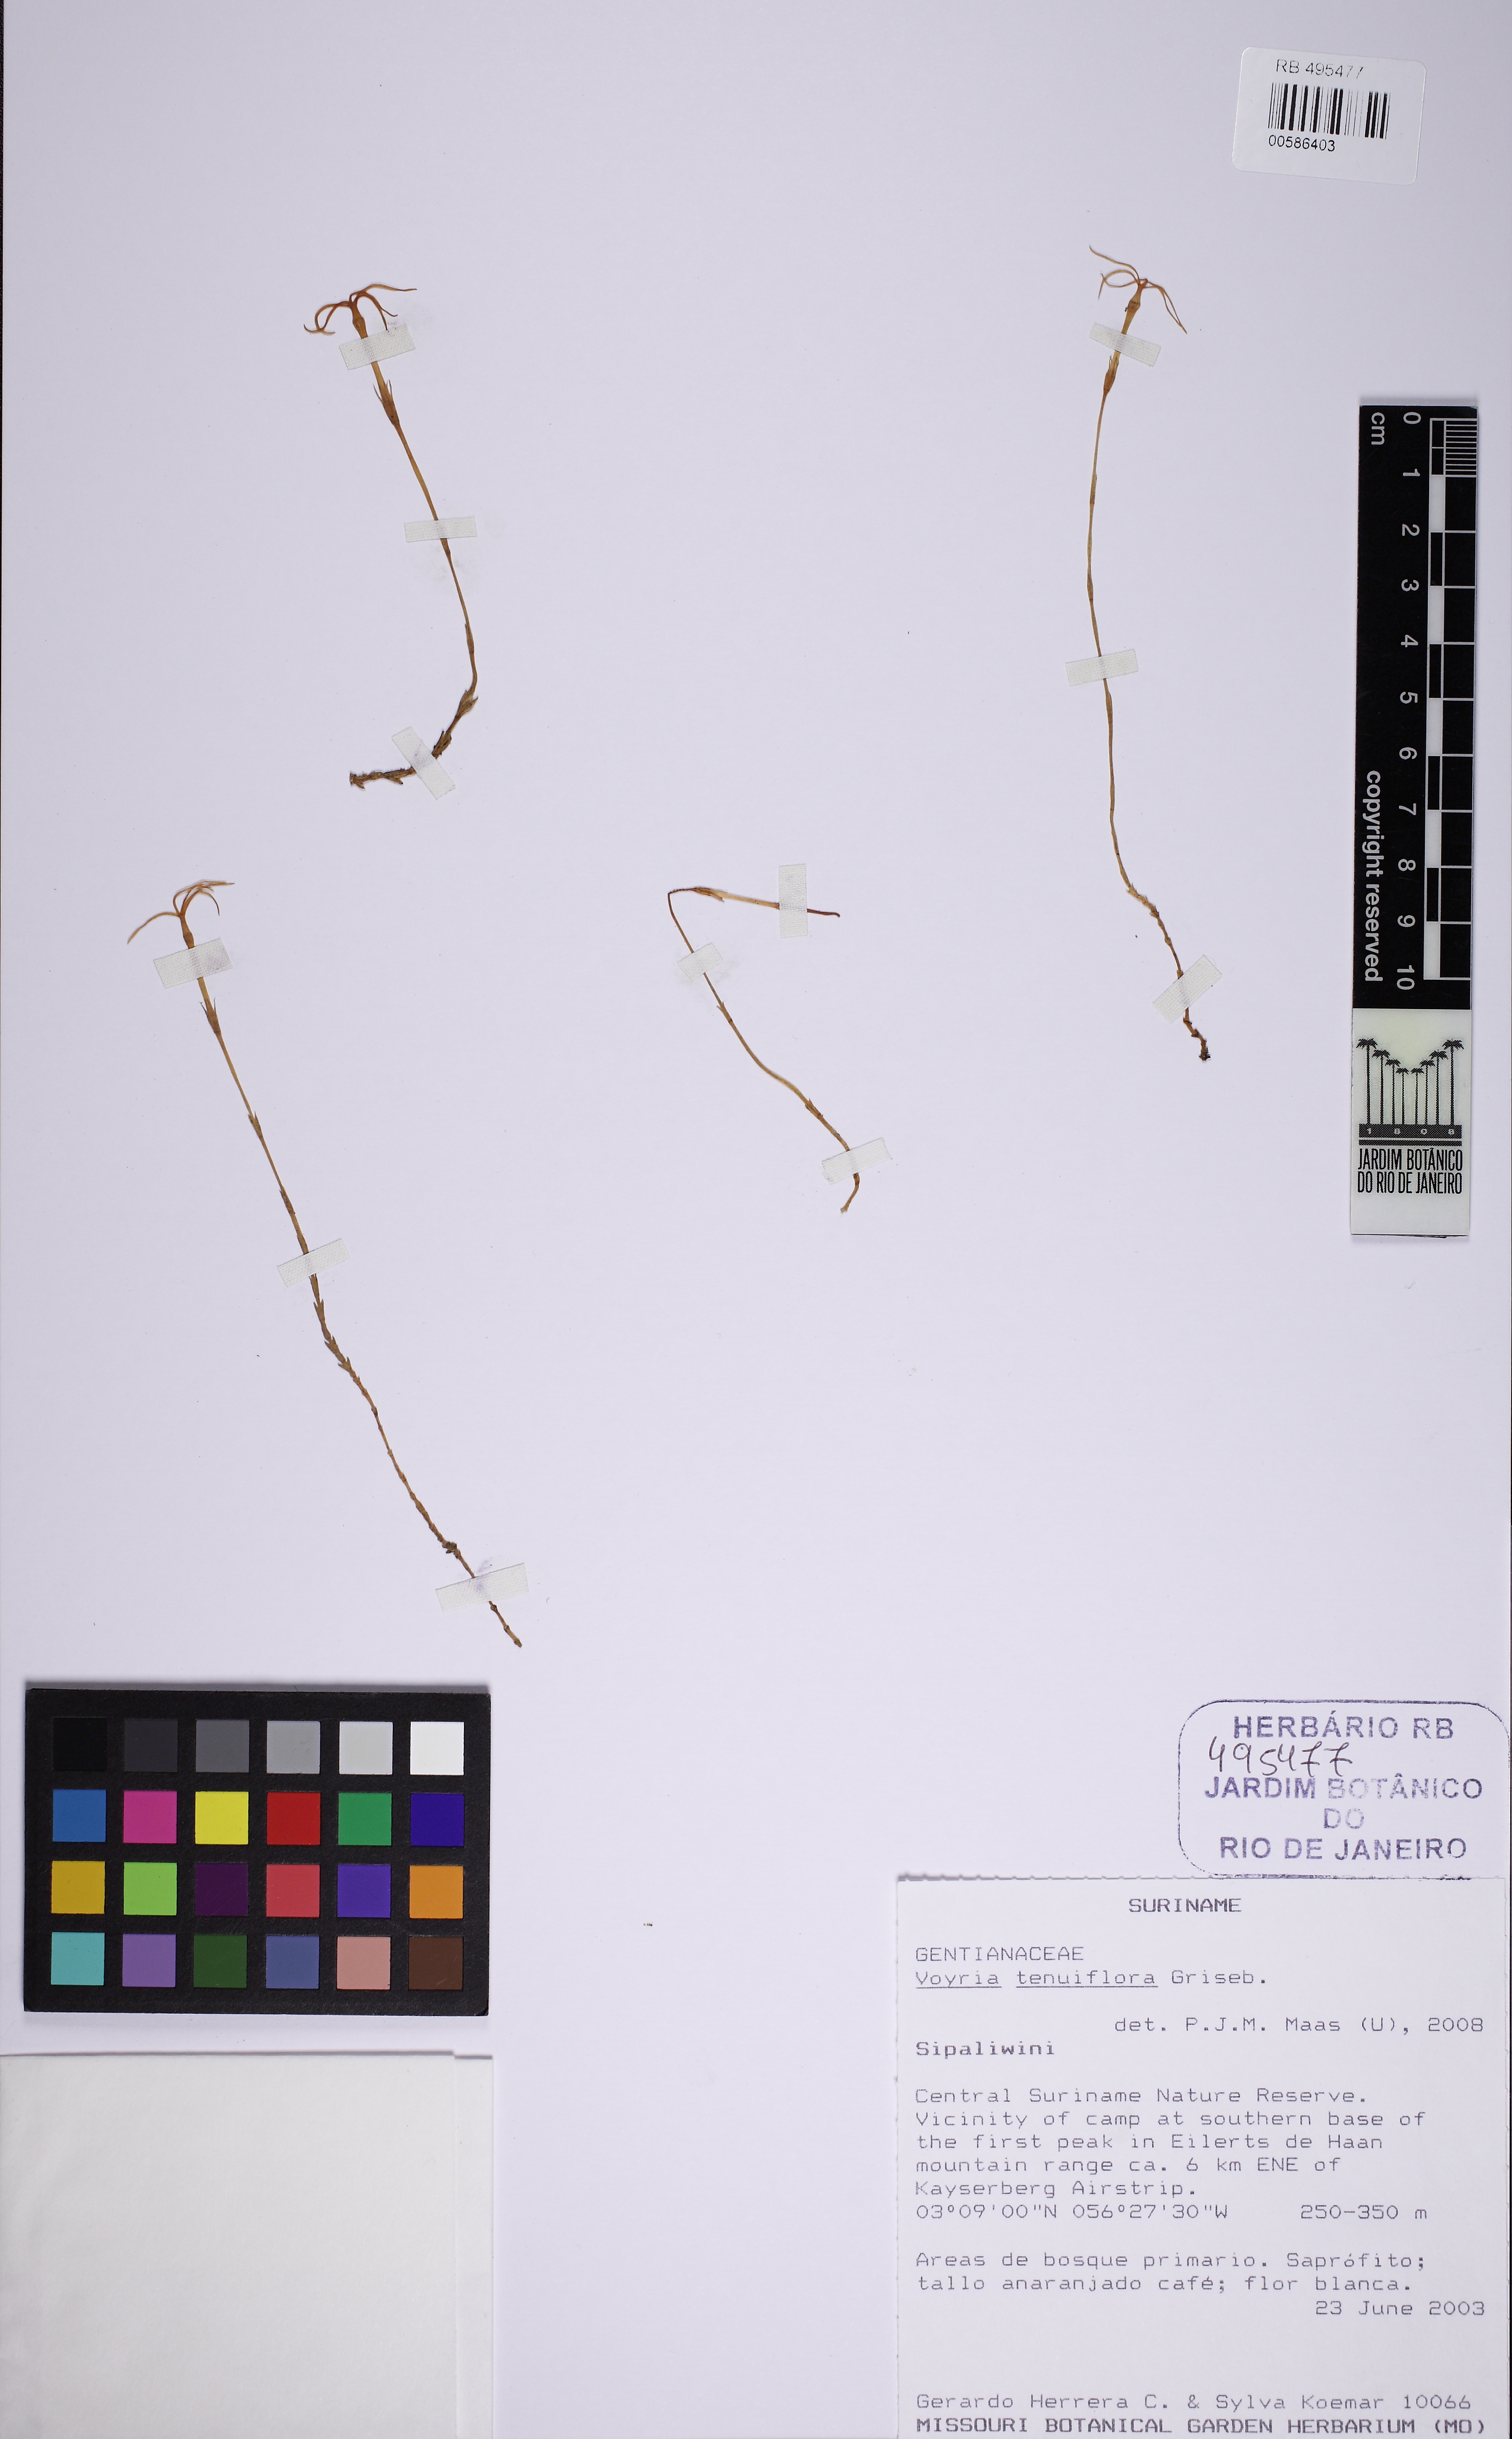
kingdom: Plantae
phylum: Tracheophyta
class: Magnoliopsida
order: Gentianales
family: Gentianaceae
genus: Voyria
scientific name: Voyria tenuiflora
